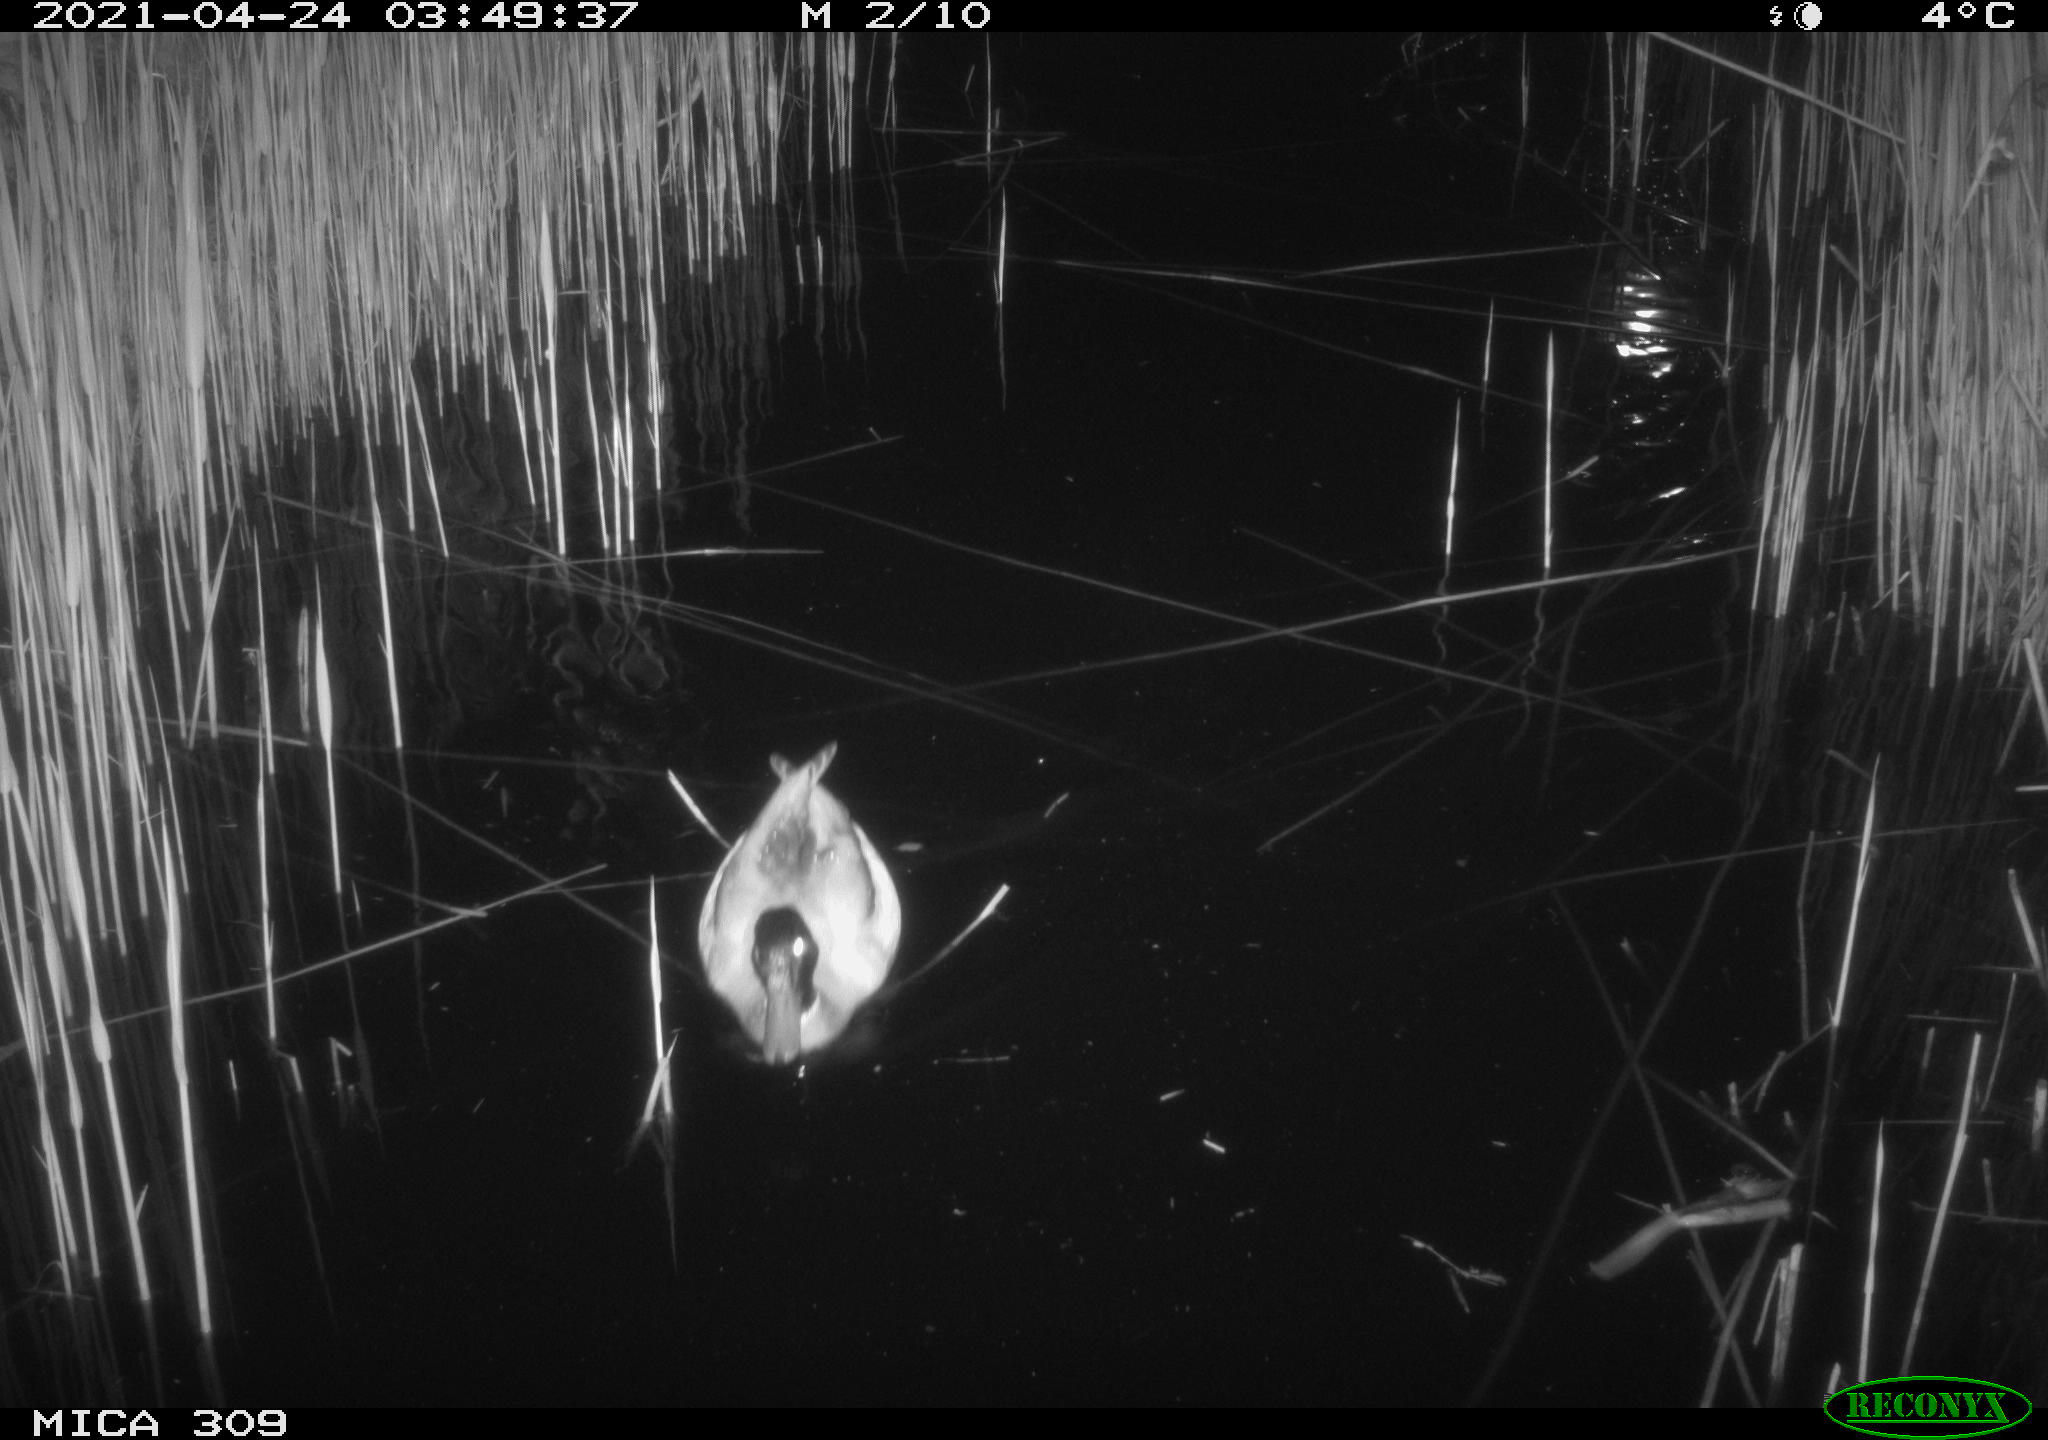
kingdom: Animalia
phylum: Chordata
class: Aves
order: Anseriformes
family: Anatidae
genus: Anas
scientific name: Anas platyrhynchos
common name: Mallard
